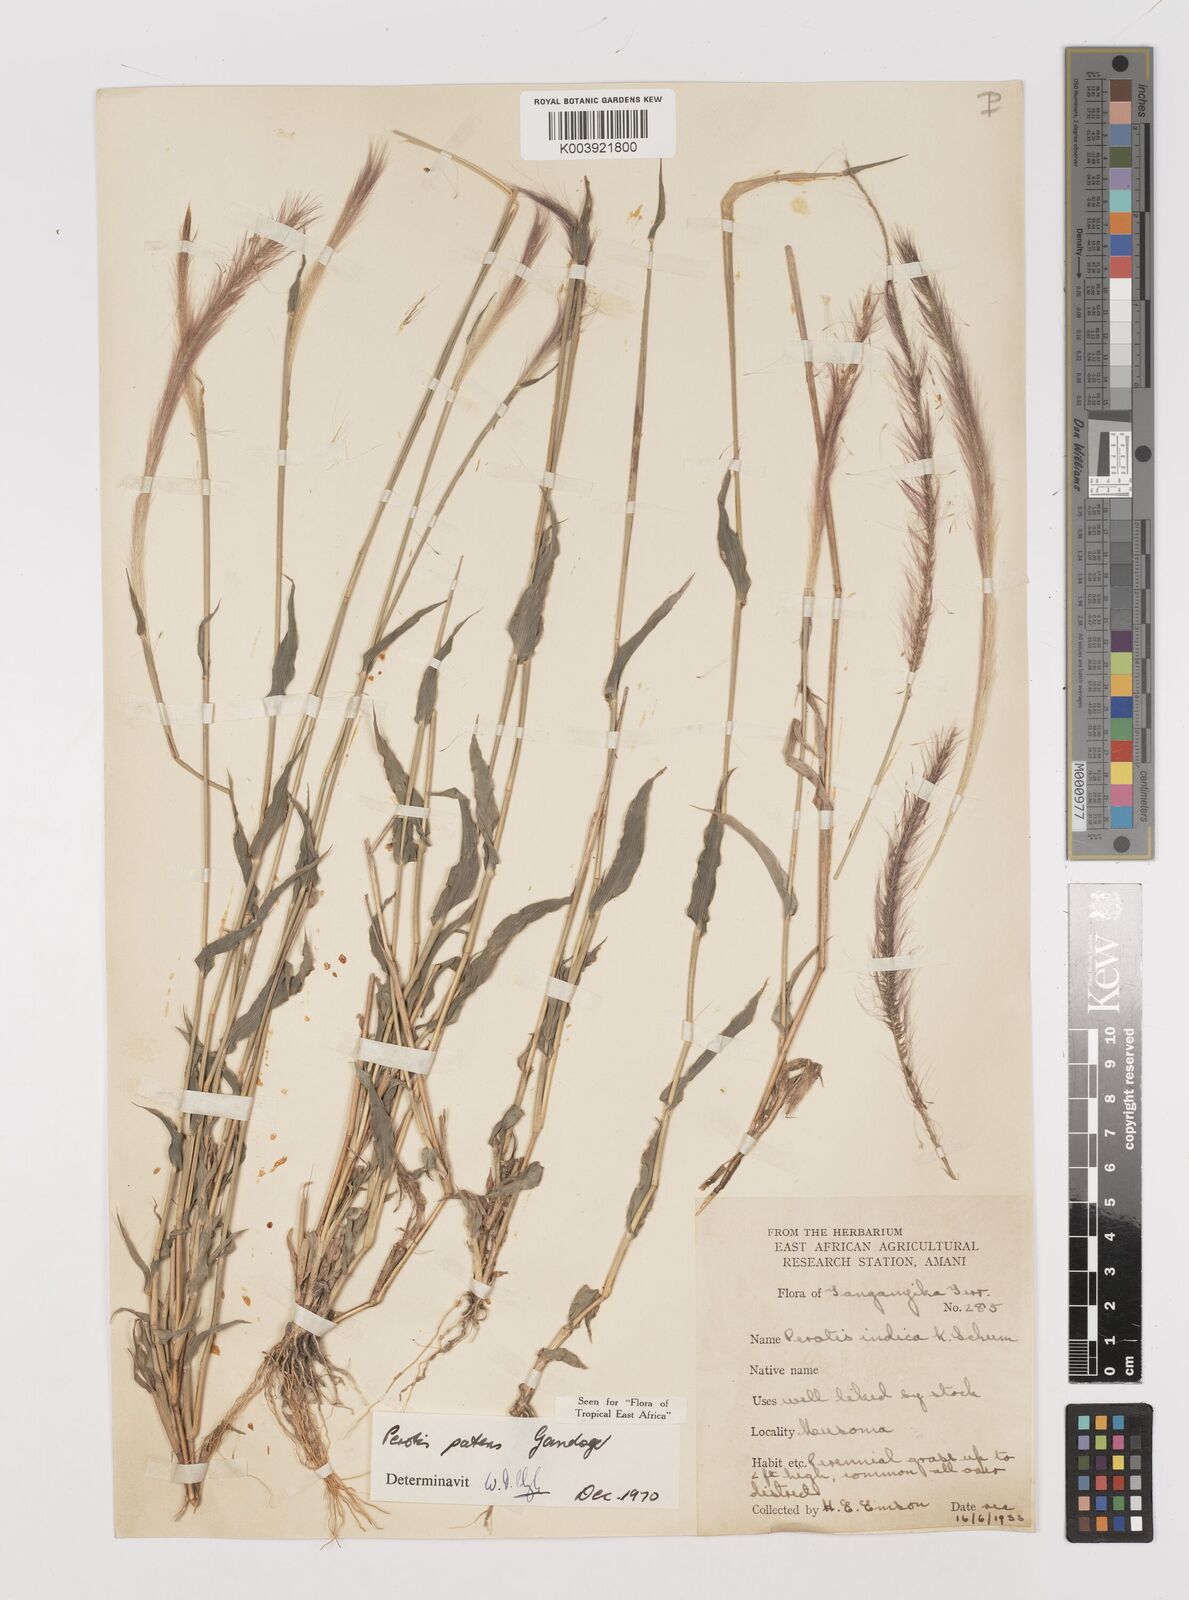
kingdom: Plantae
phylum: Tracheophyta
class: Liliopsida
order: Poales
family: Poaceae
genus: Perotis
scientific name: Perotis patens
